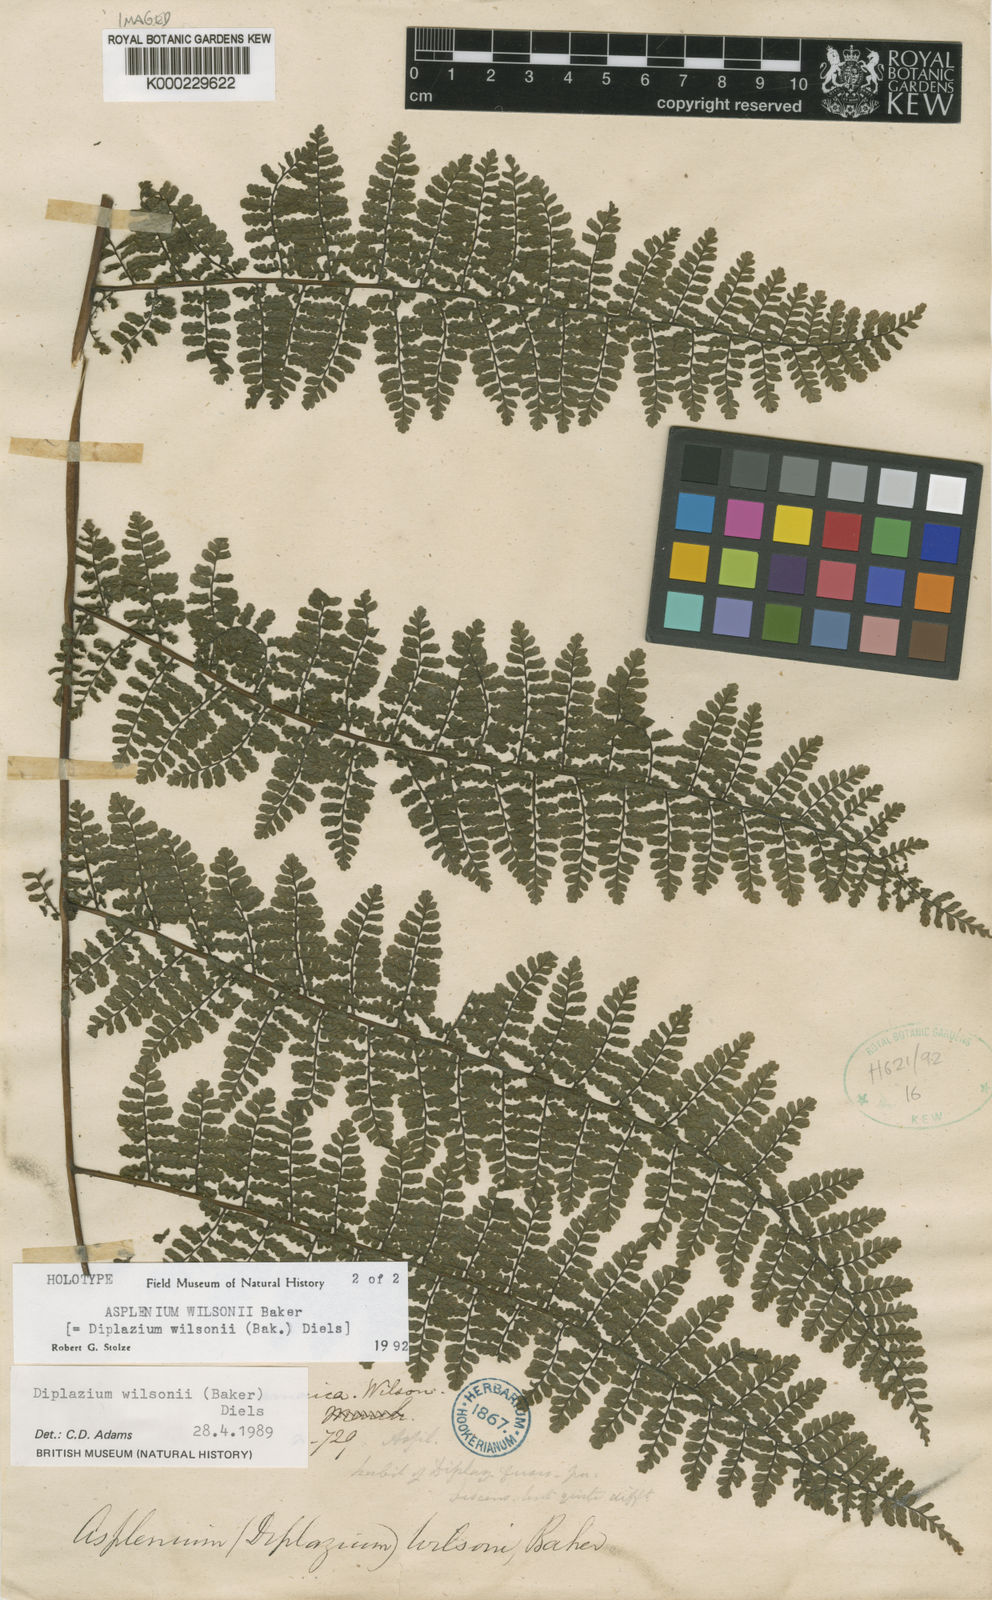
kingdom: Plantae
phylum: Tracheophyta
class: Polypodiopsida
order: Polypodiales
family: Athyriaceae
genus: Diplazium
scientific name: Diplazium wilsonii
